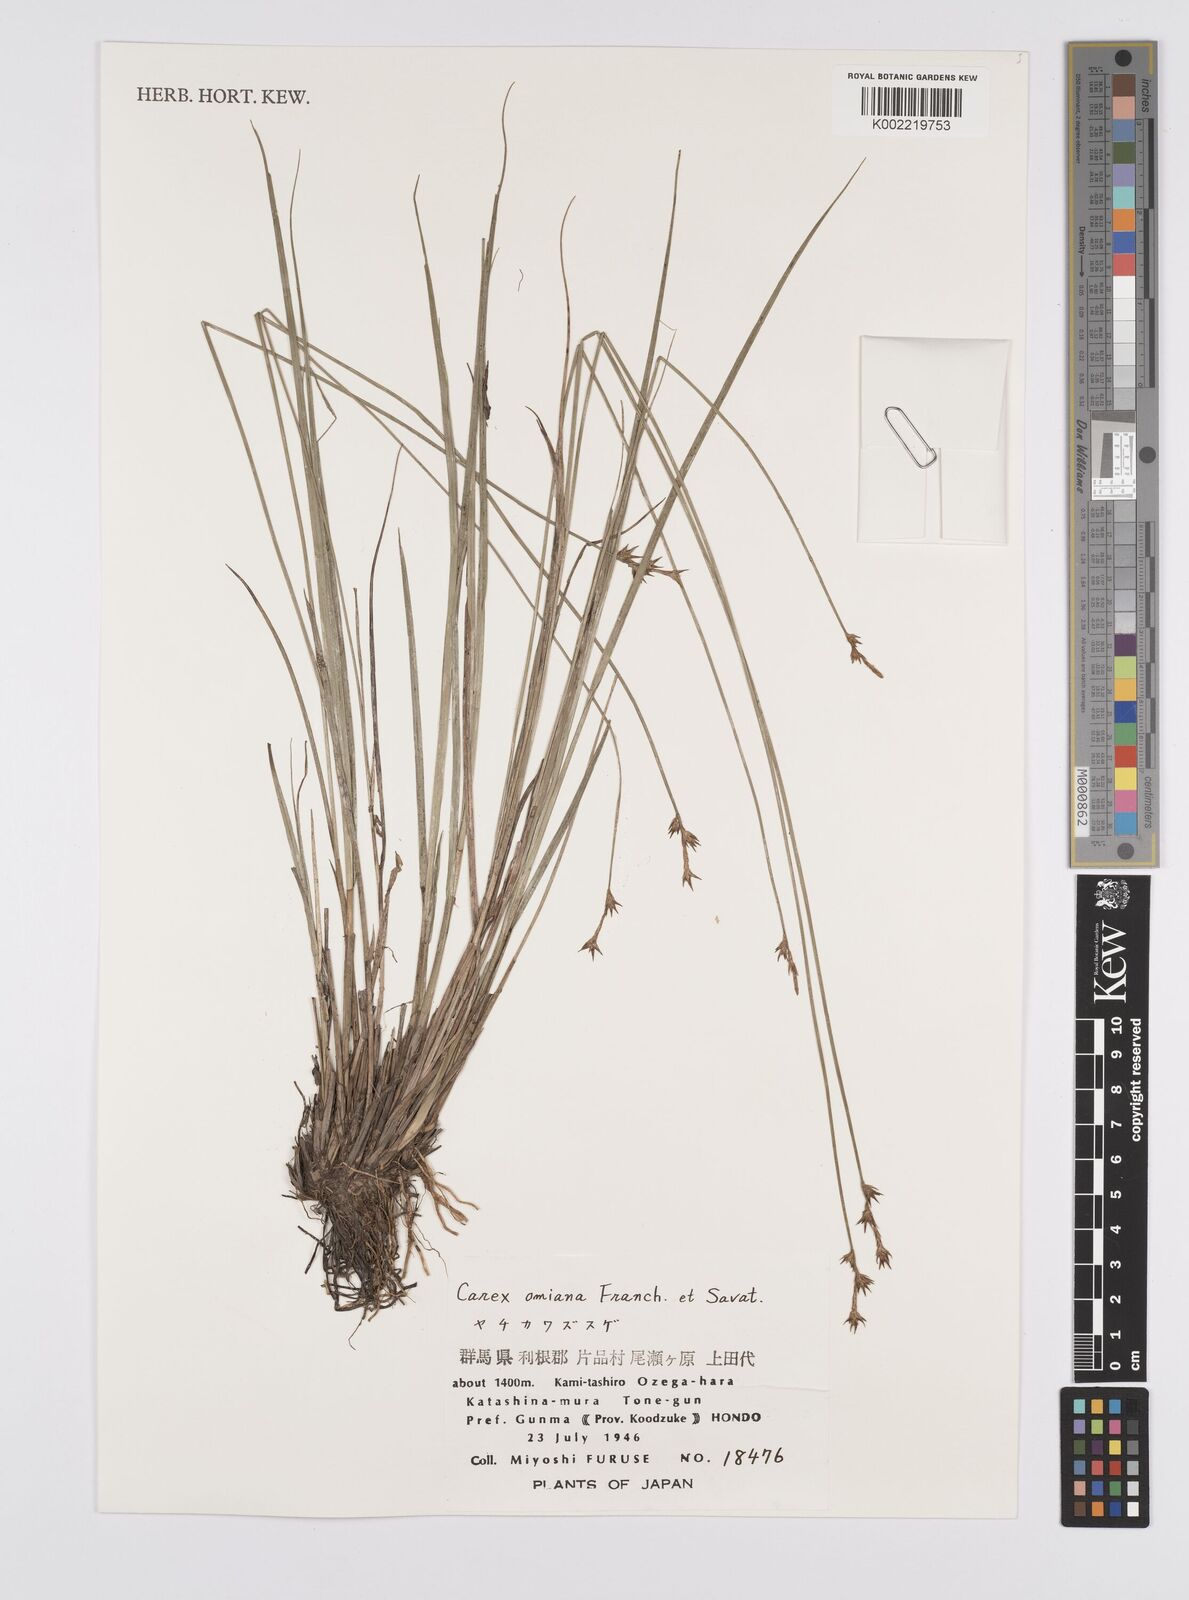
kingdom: Plantae
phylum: Tracheophyta
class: Liliopsida
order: Poales
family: Cyperaceae
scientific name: Cyperaceae
